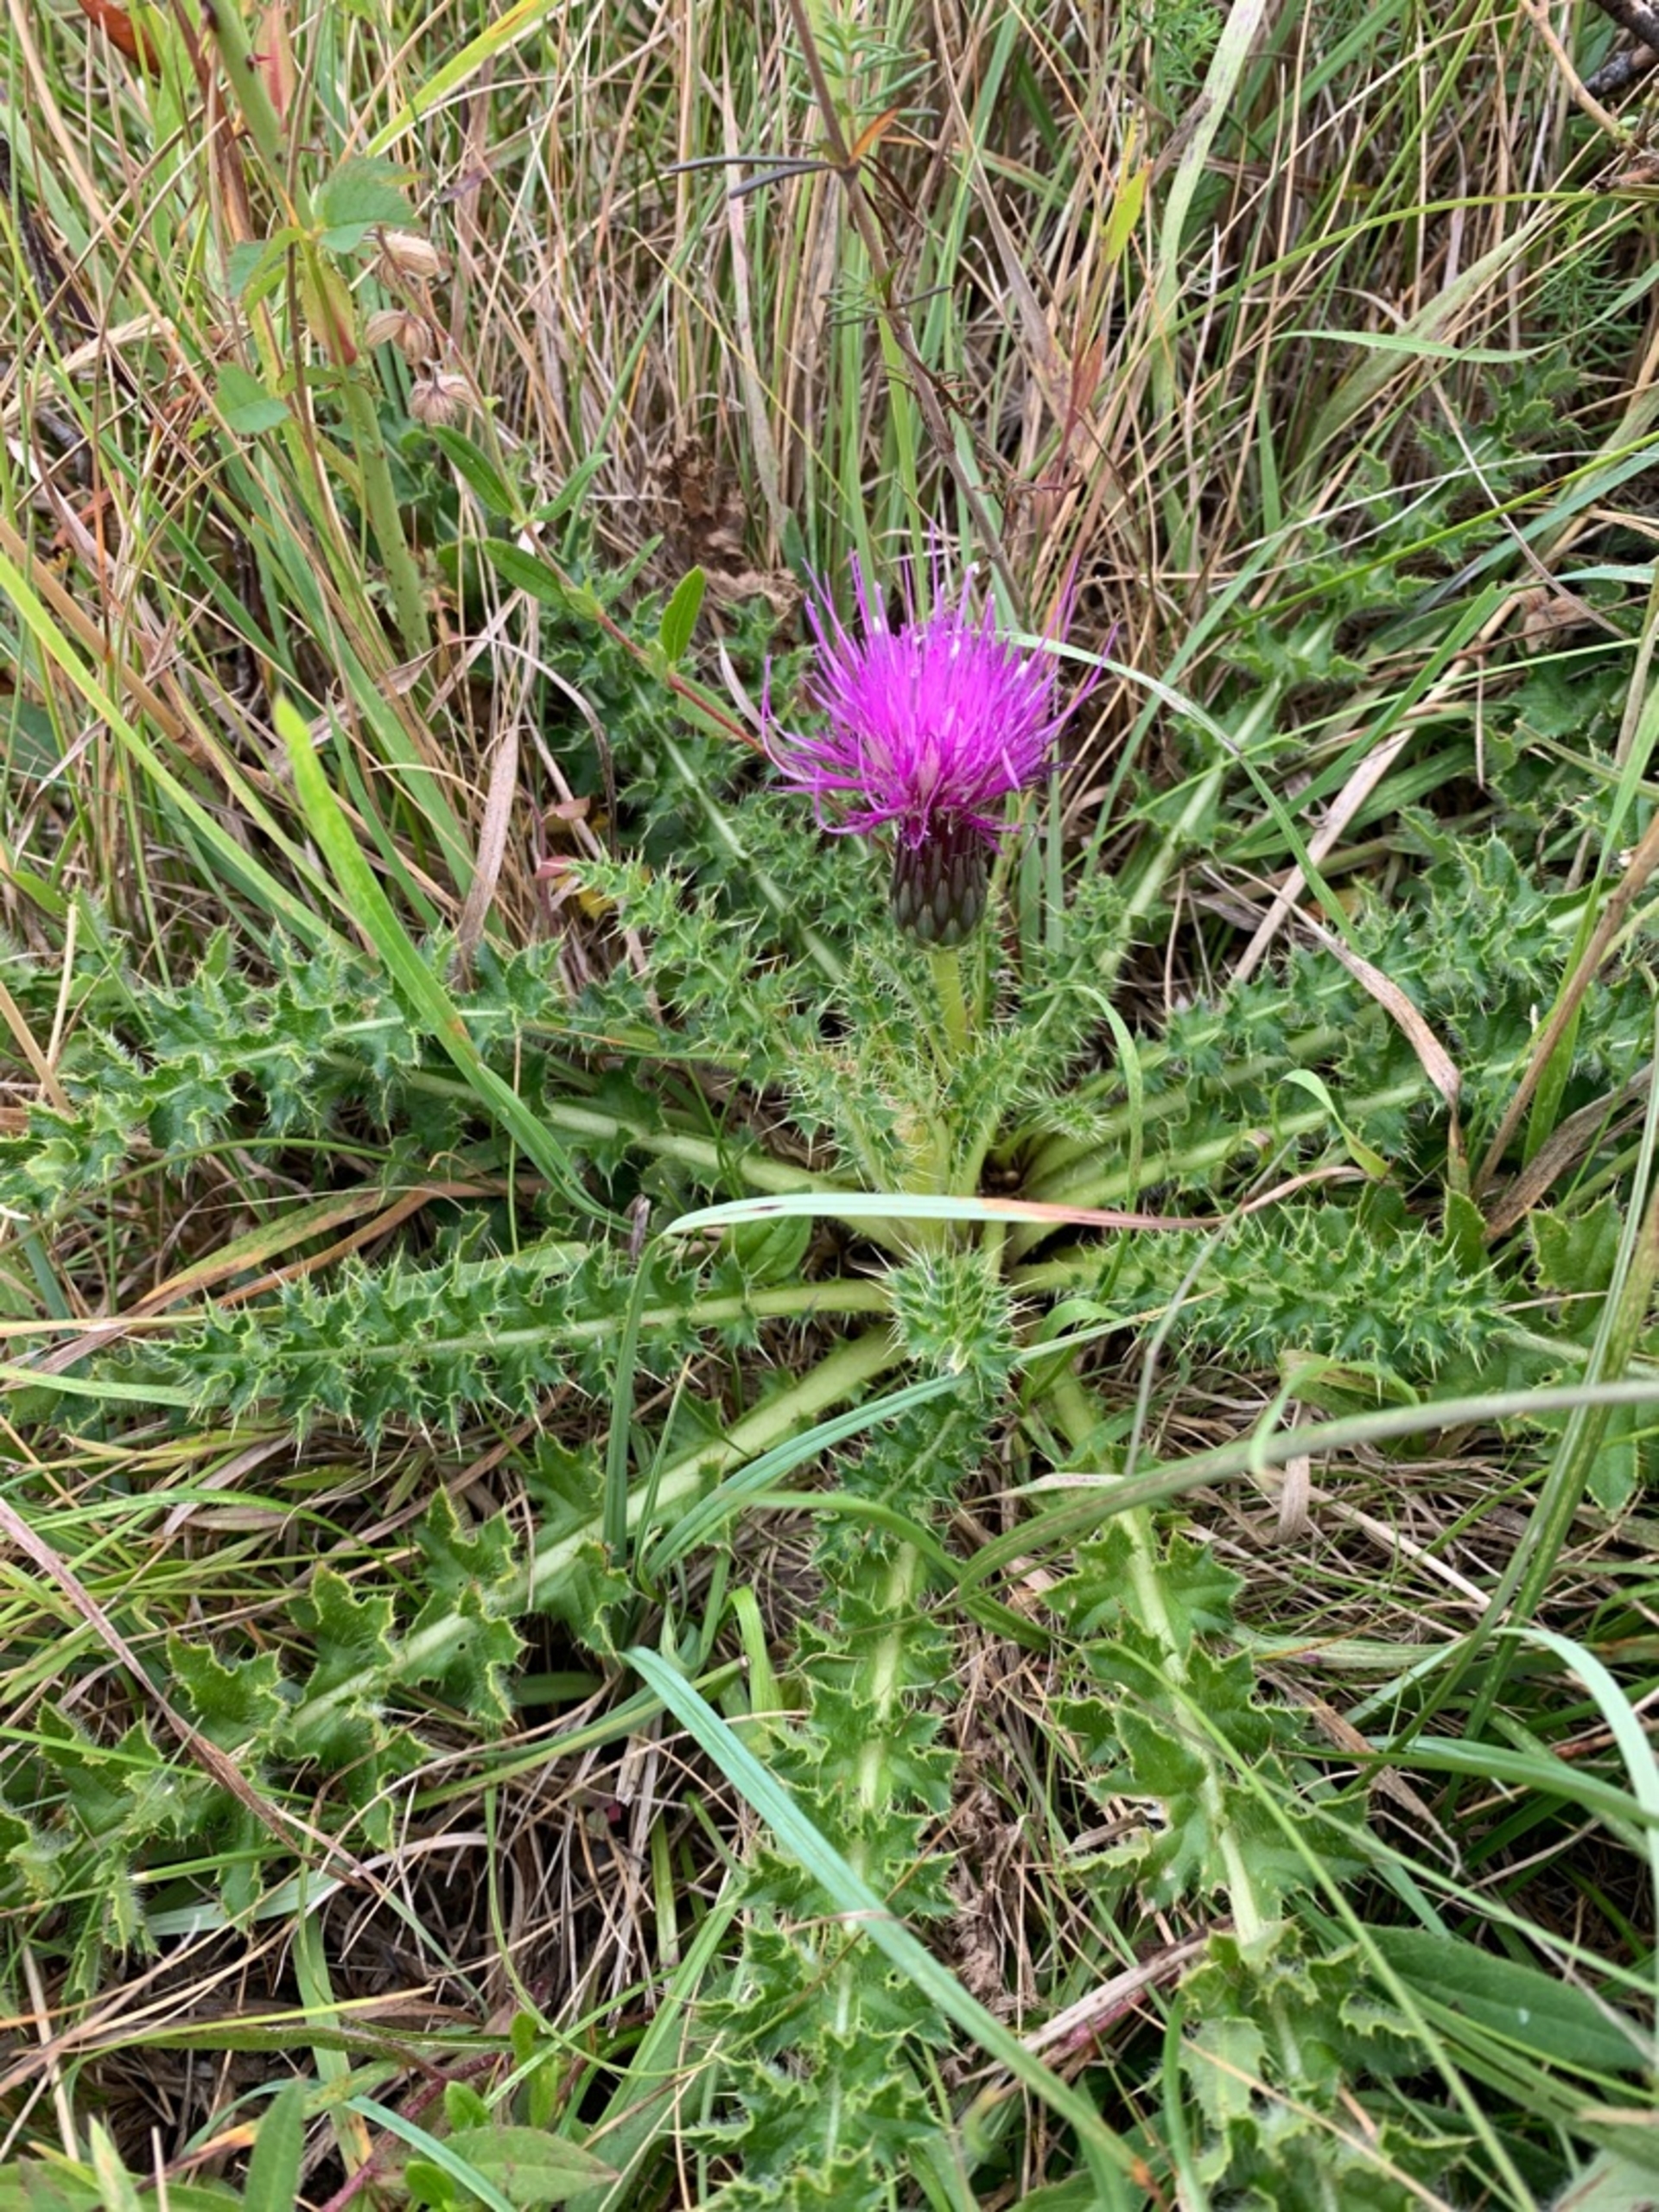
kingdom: Plantae
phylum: Tracheophyta
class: Magnoliopsida
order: Asterales
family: Asteraceae
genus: Cirsium
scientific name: Cirsium acaule
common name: Lav tidsel
